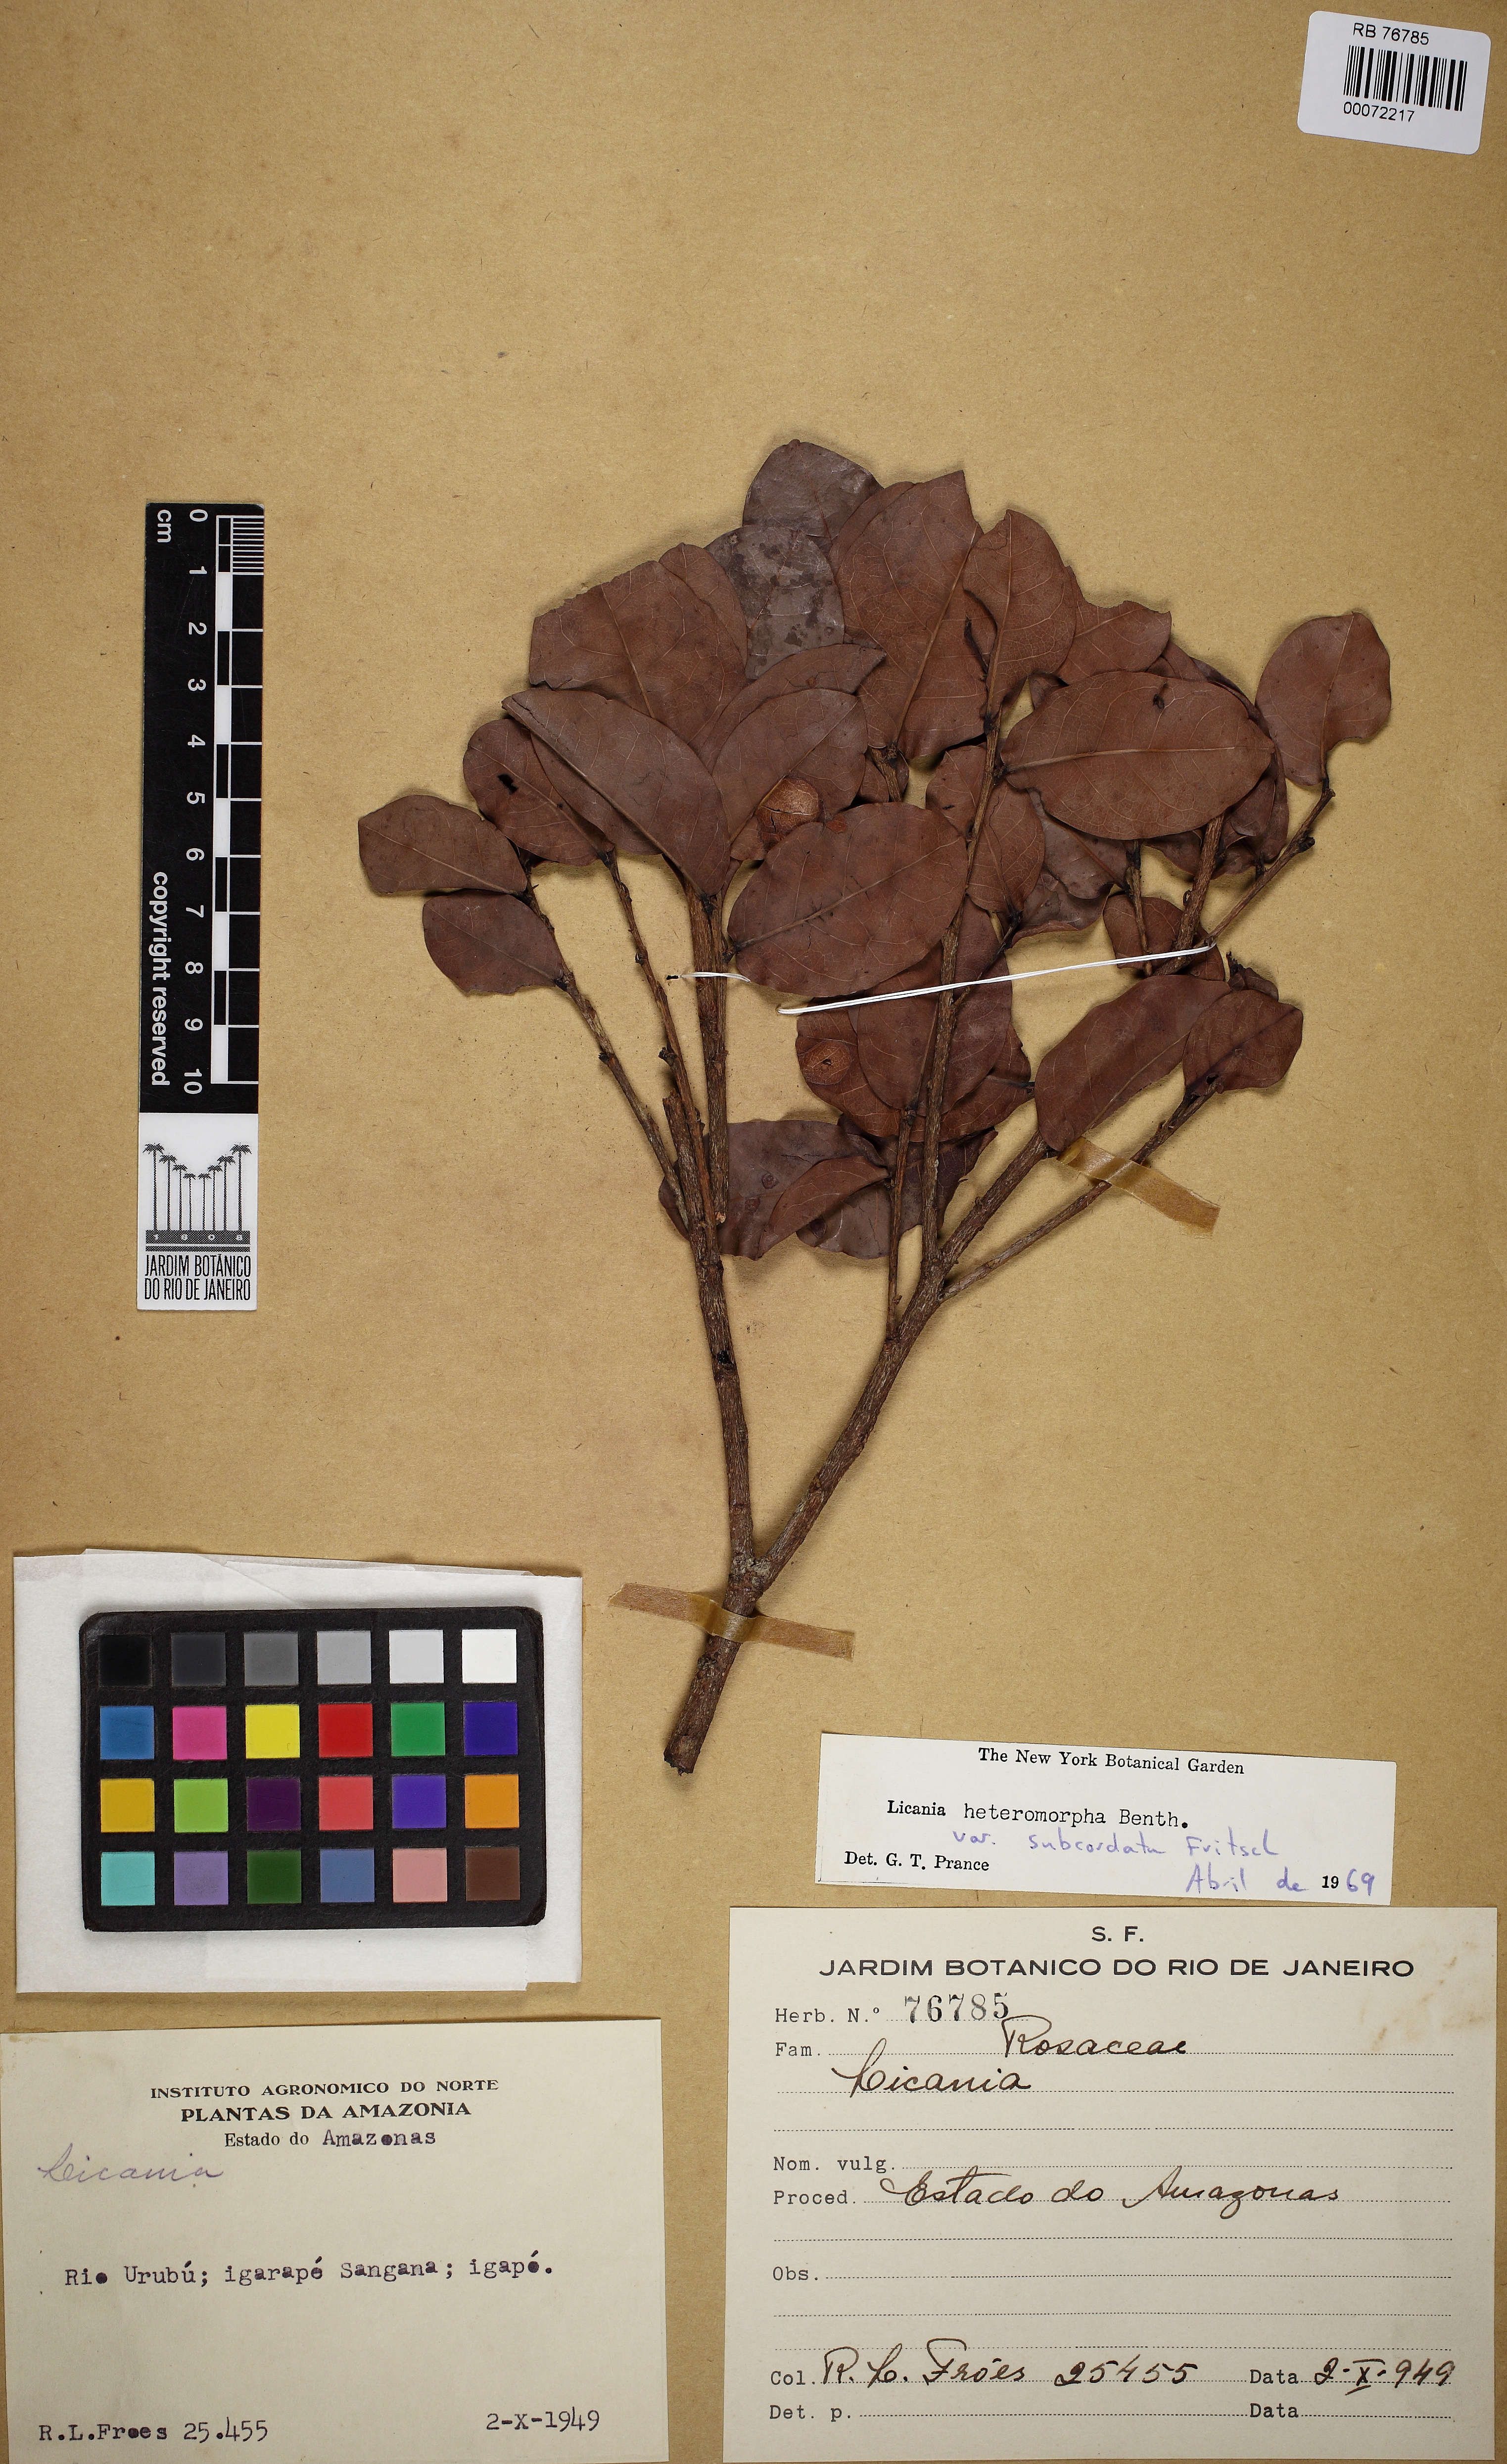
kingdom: Plantae
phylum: Tracheophyta
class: Magnoliopsida
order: Malpighiales
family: Chrysobalanaceae
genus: Hymenopus
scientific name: Hymenopus heteromorphus
